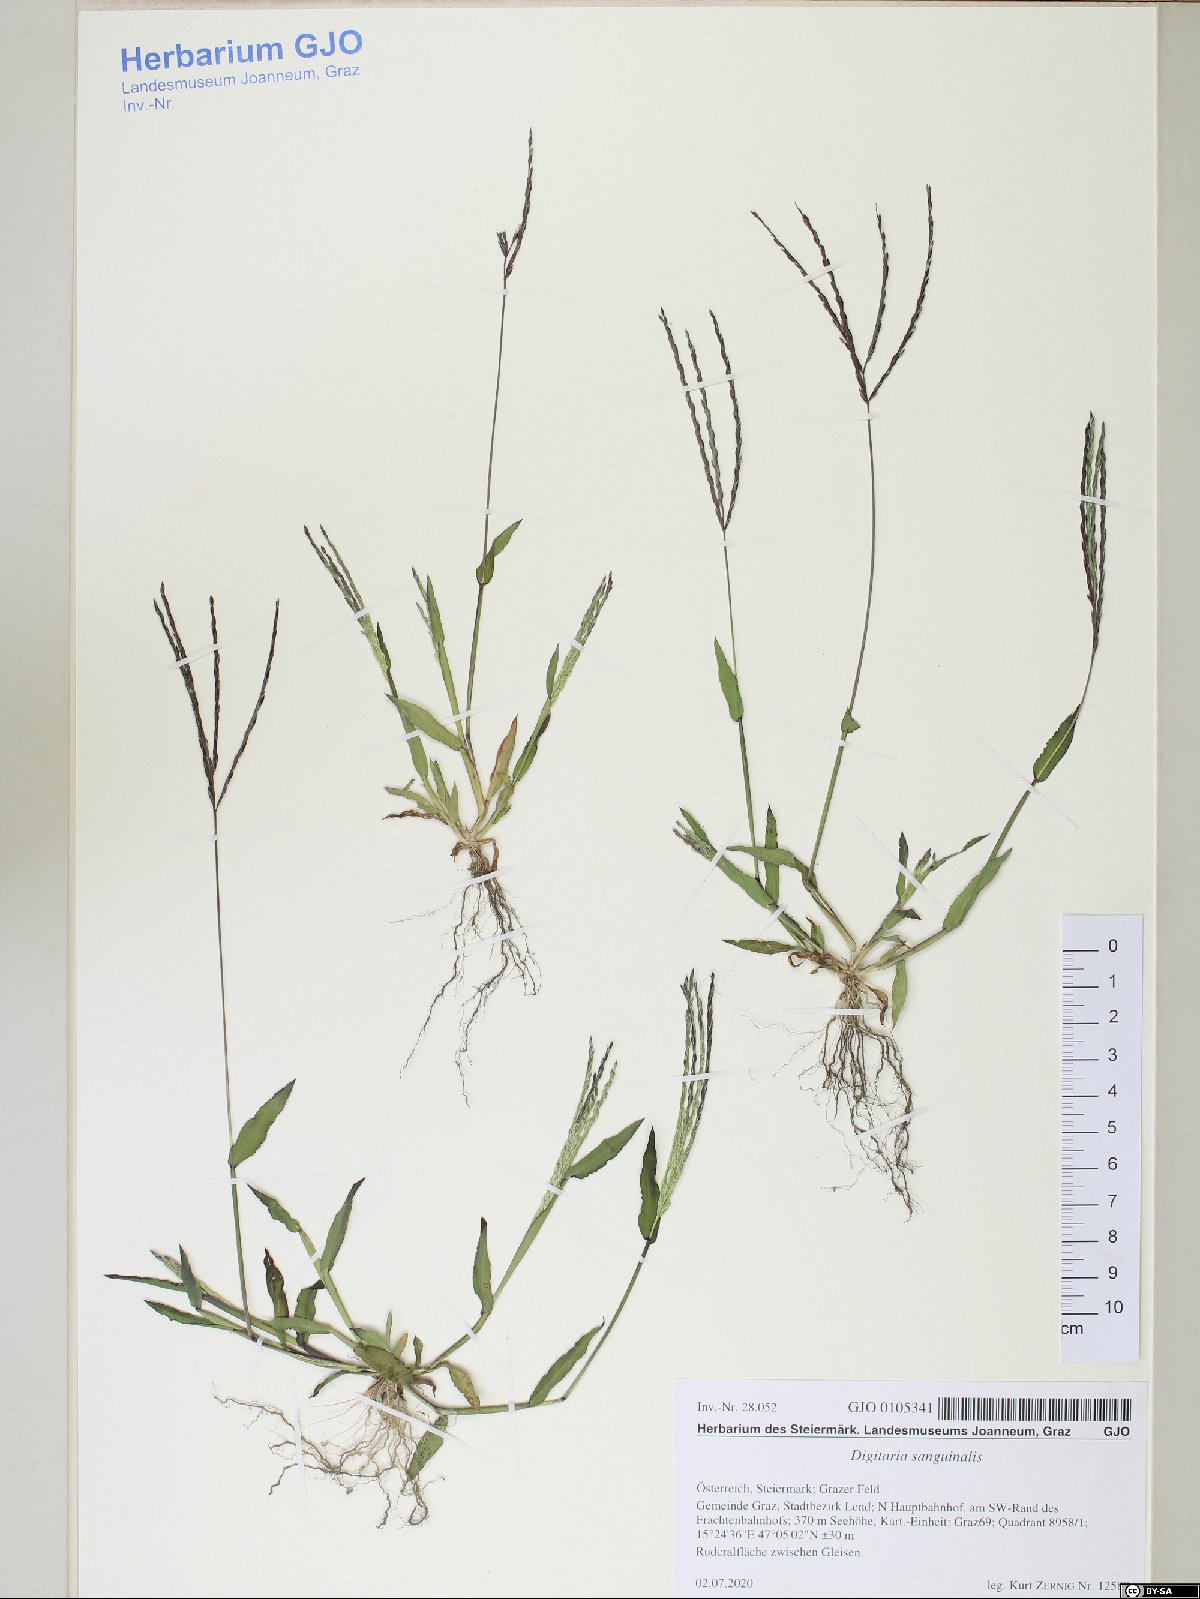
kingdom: Plantae
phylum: Tracheophyta
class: Liliopsida
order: Poales
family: Poaceae
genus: Digitaria
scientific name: Digitaria sanguinalis
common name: Hairy crabgrass
